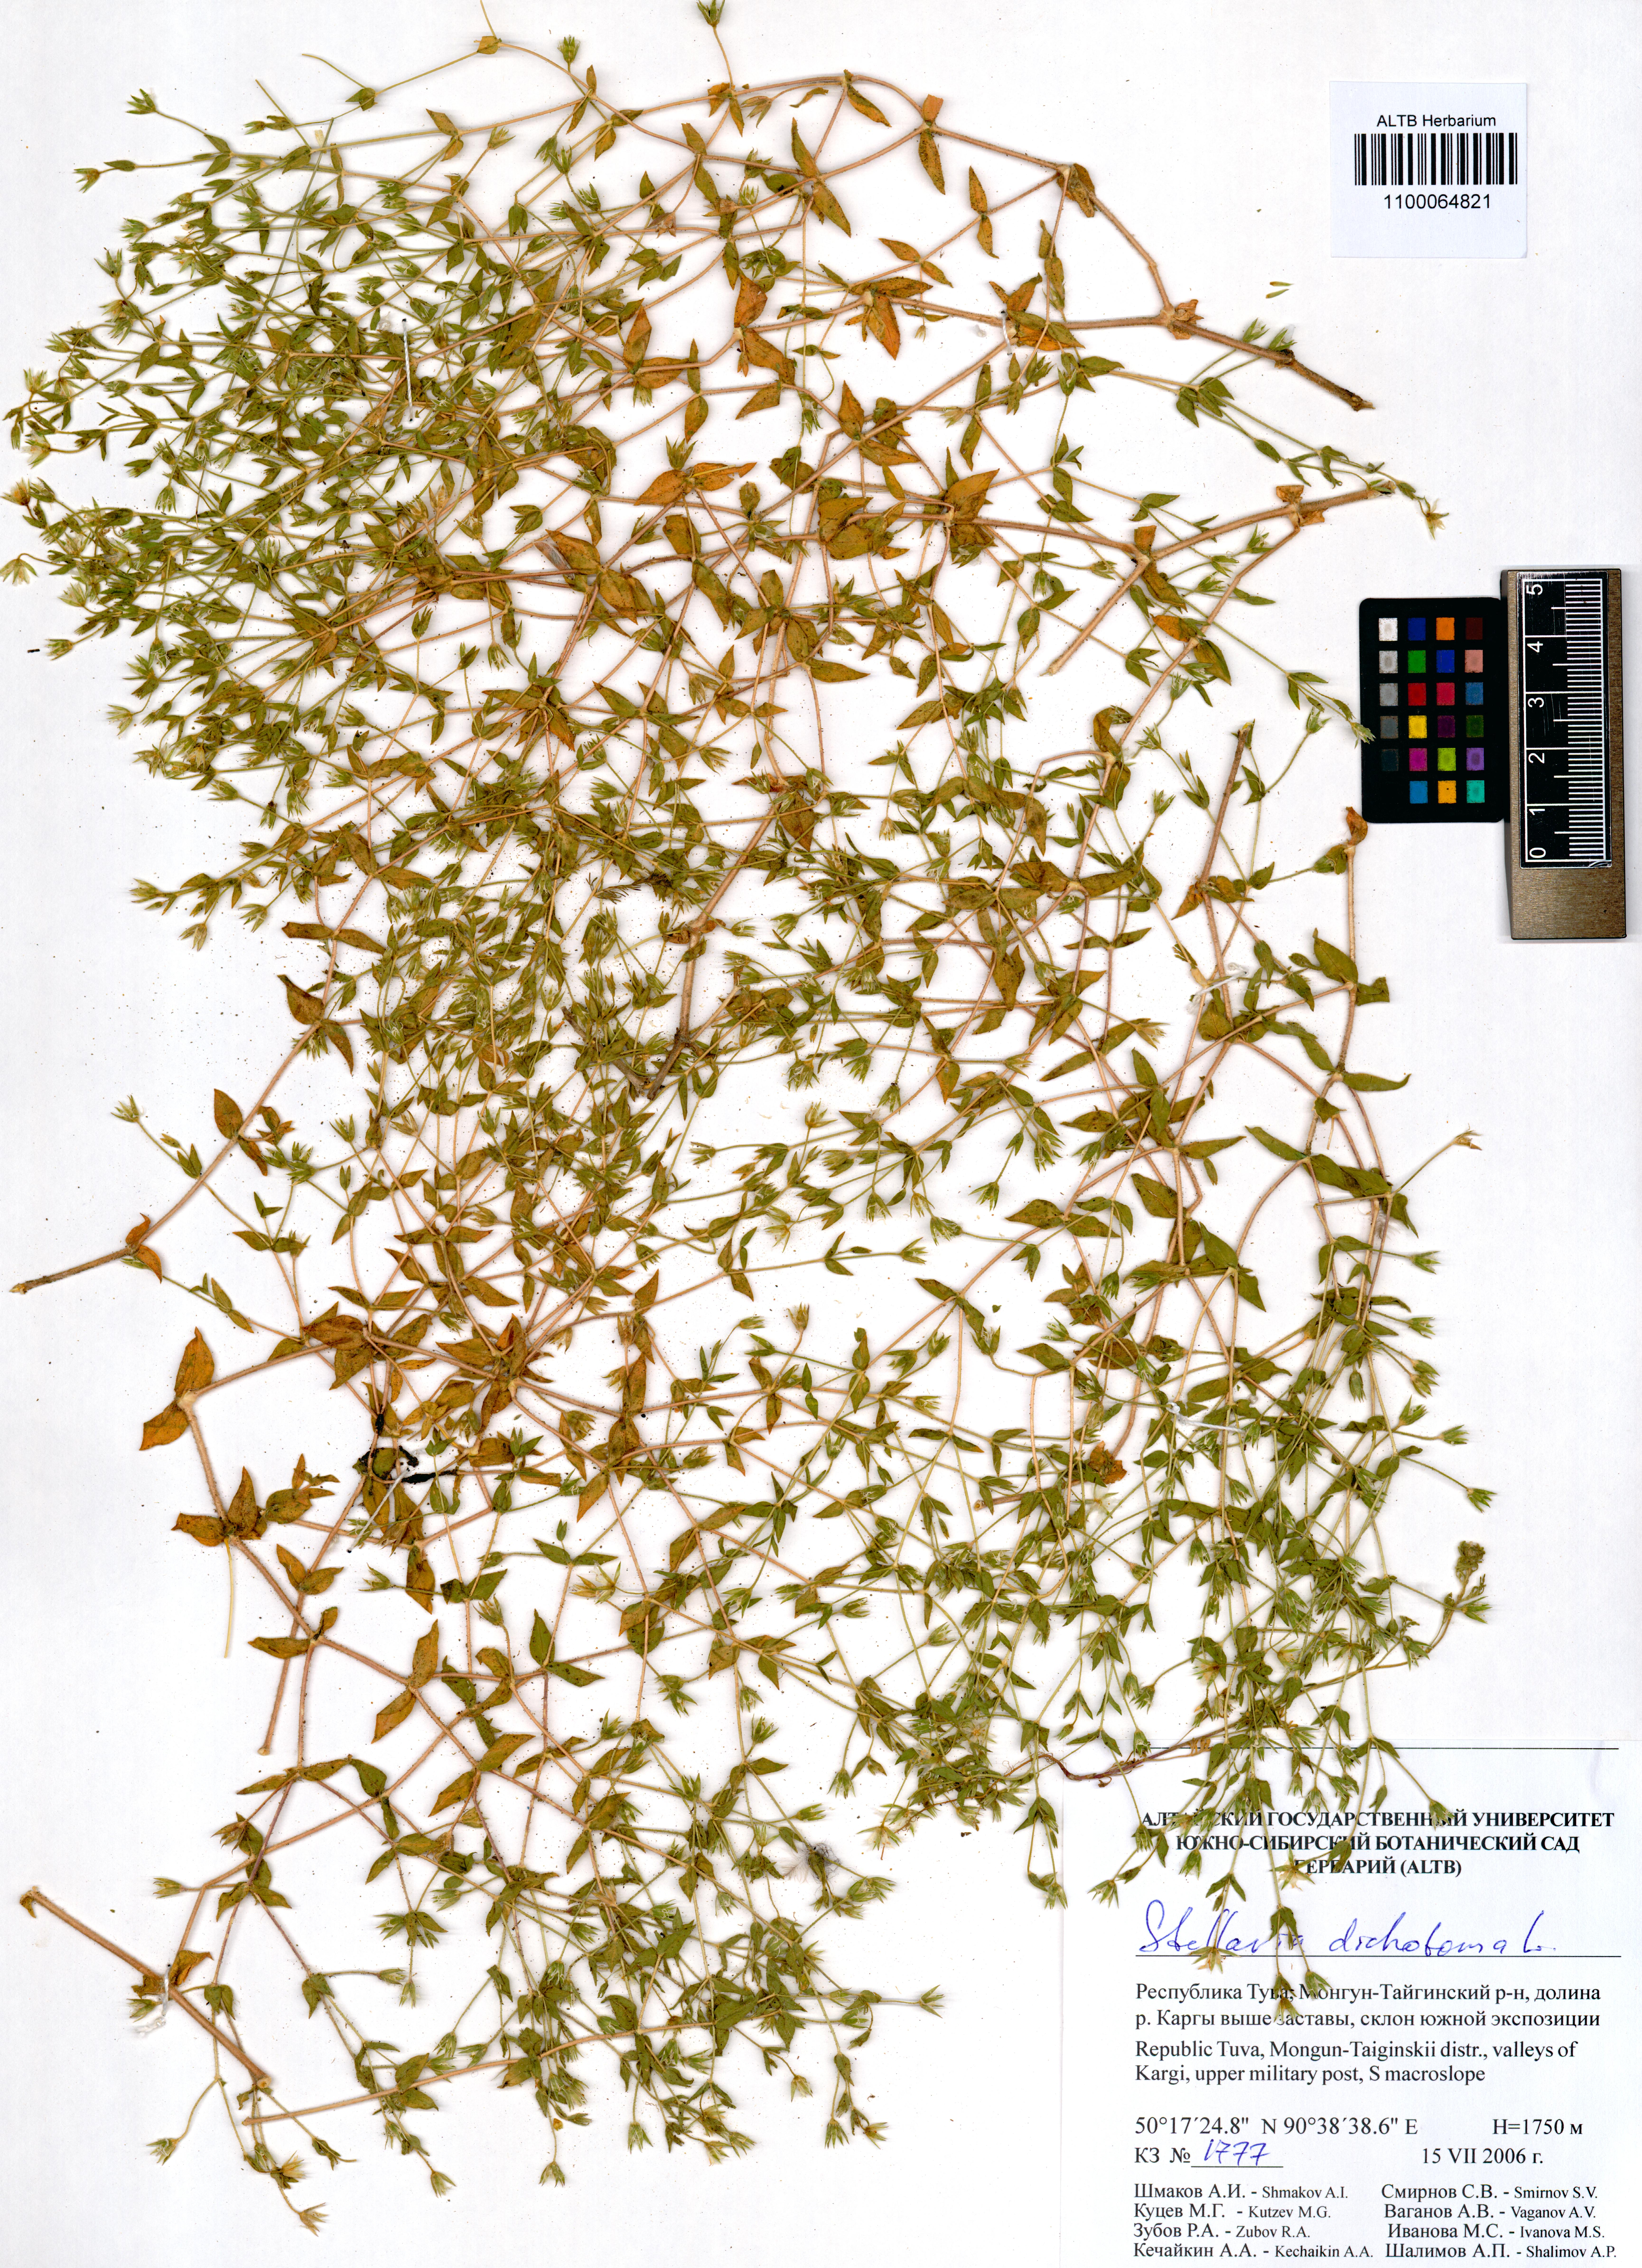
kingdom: Plantae
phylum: Tracheophyta
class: Magnoliopsida
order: Caryophyllales
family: Caryophyllaceae
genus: Mesostemma
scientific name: Mesostemma dichotomum
